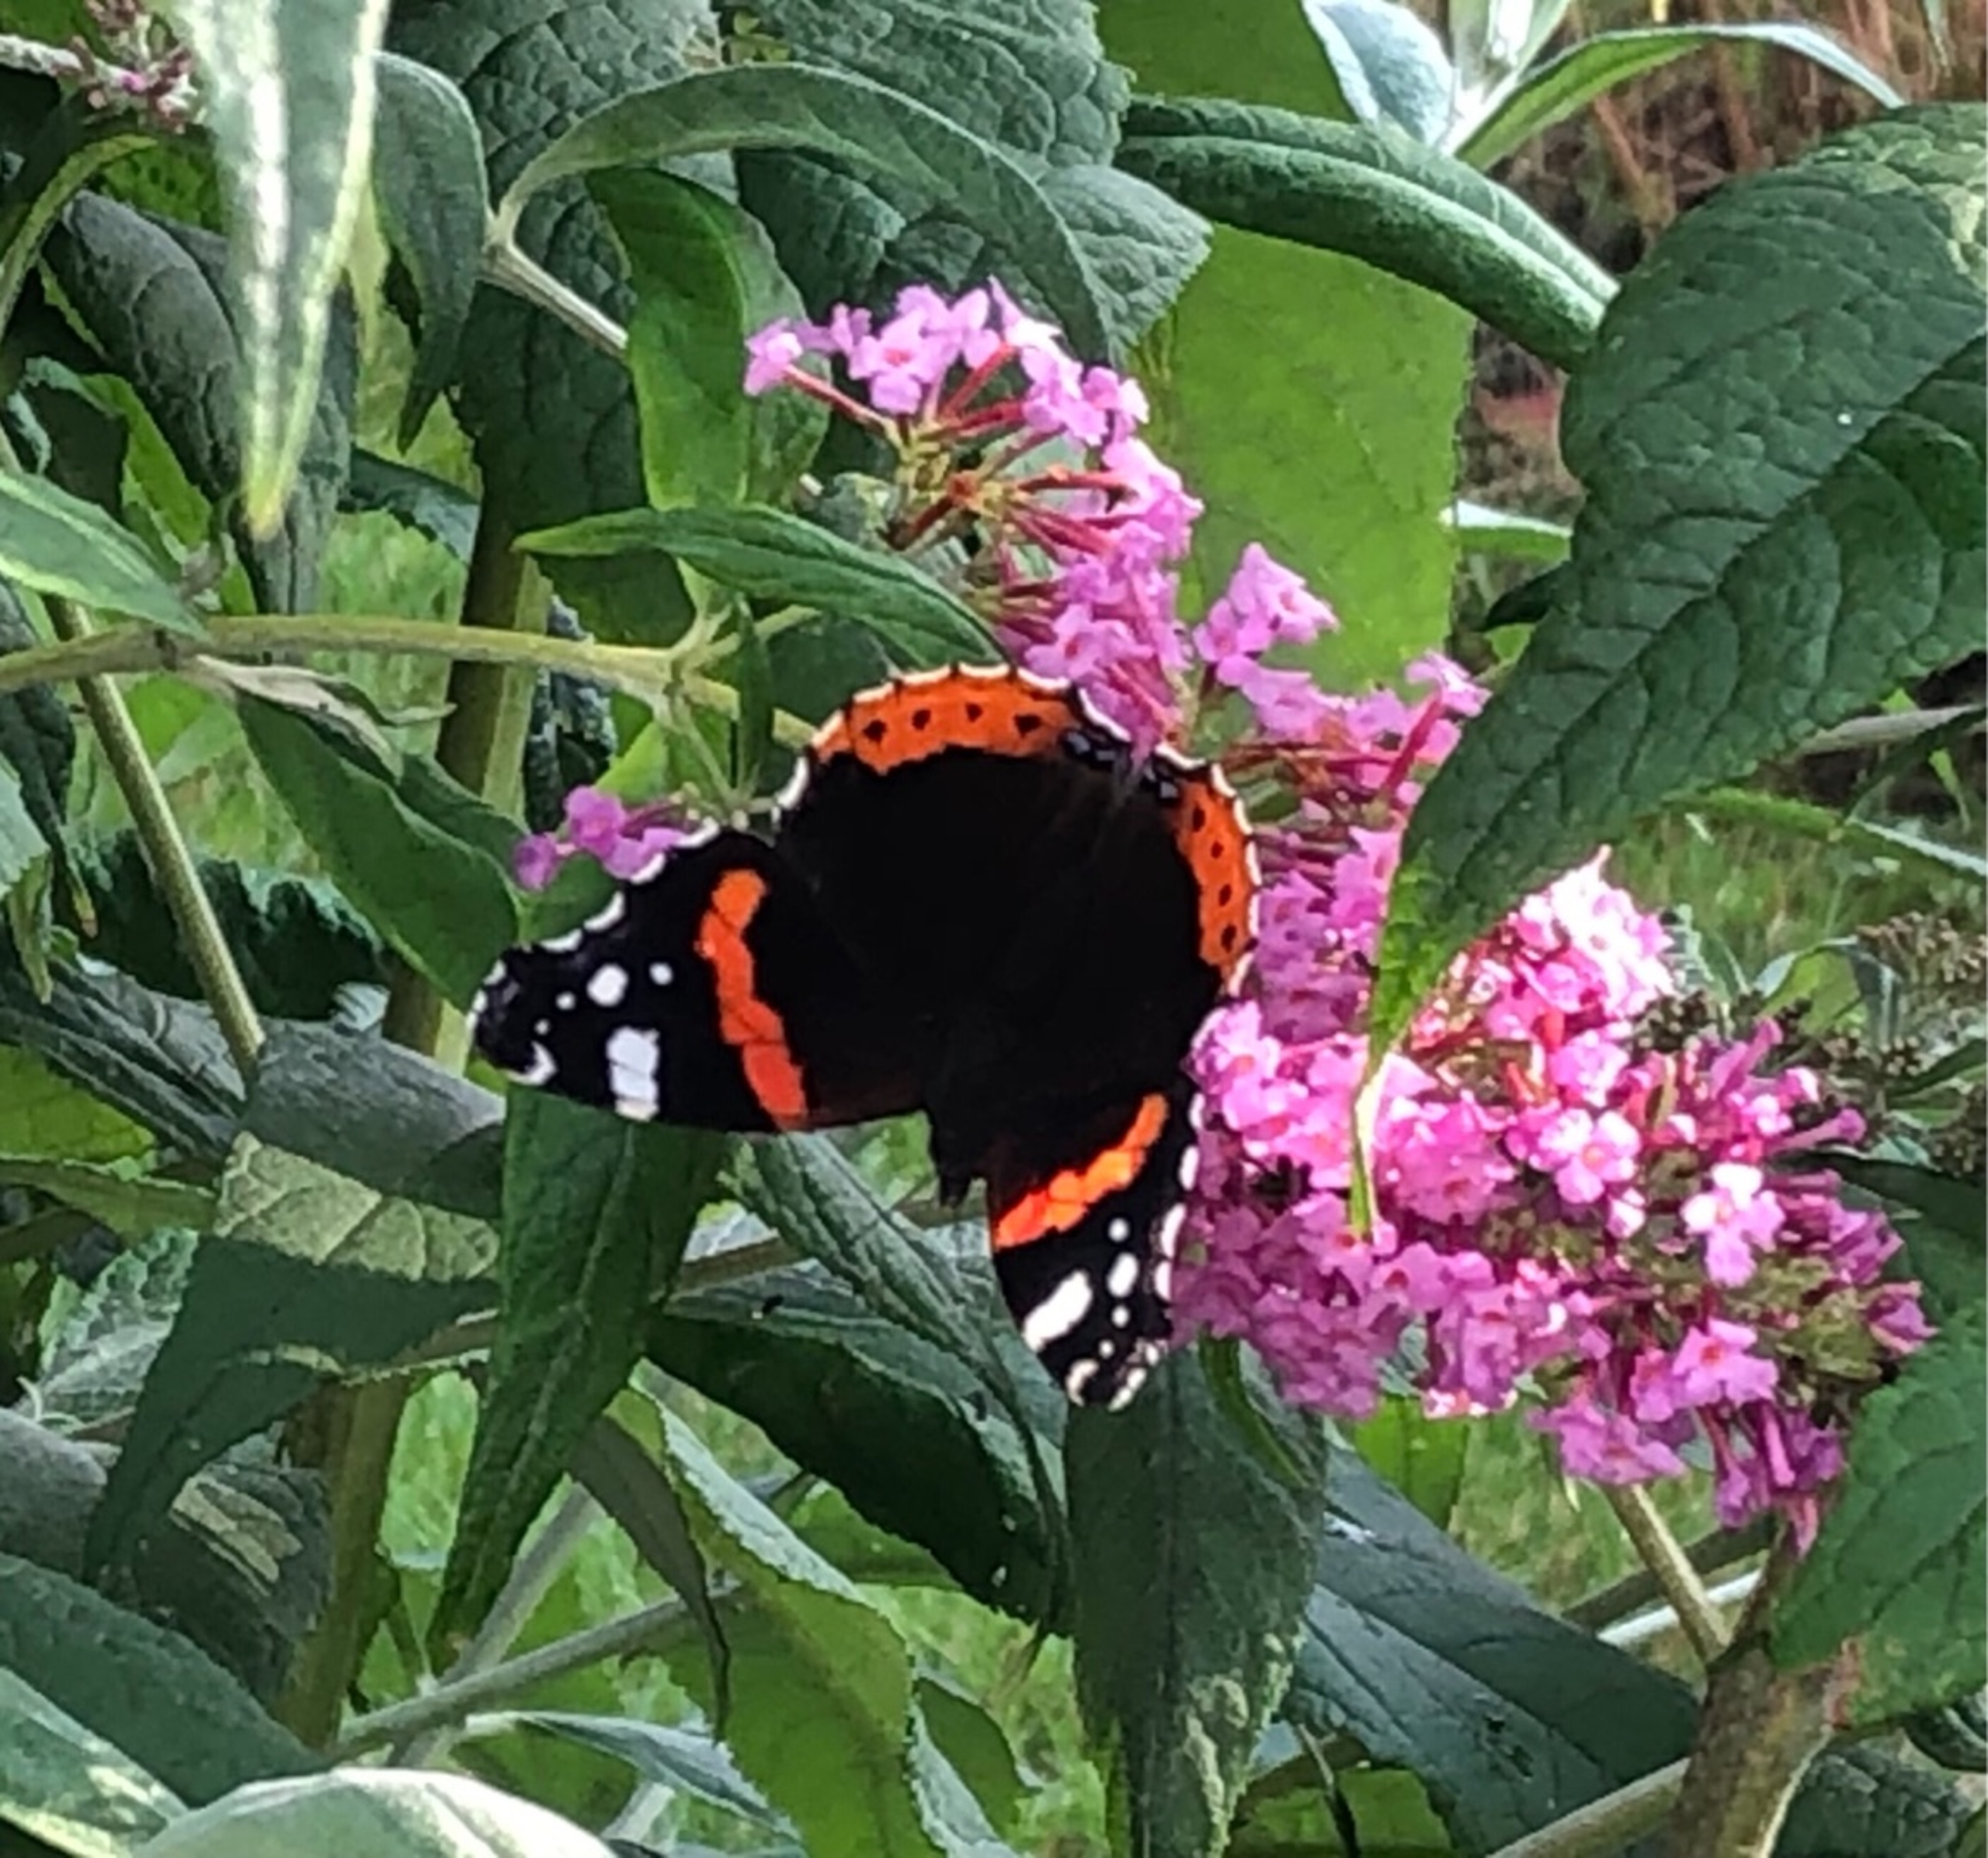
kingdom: Animalia
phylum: Arthropoda
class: Insecta
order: Lepidoptera
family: Nymphalidae
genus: Vanessa
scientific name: Vanessa atalanta
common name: Admiral
